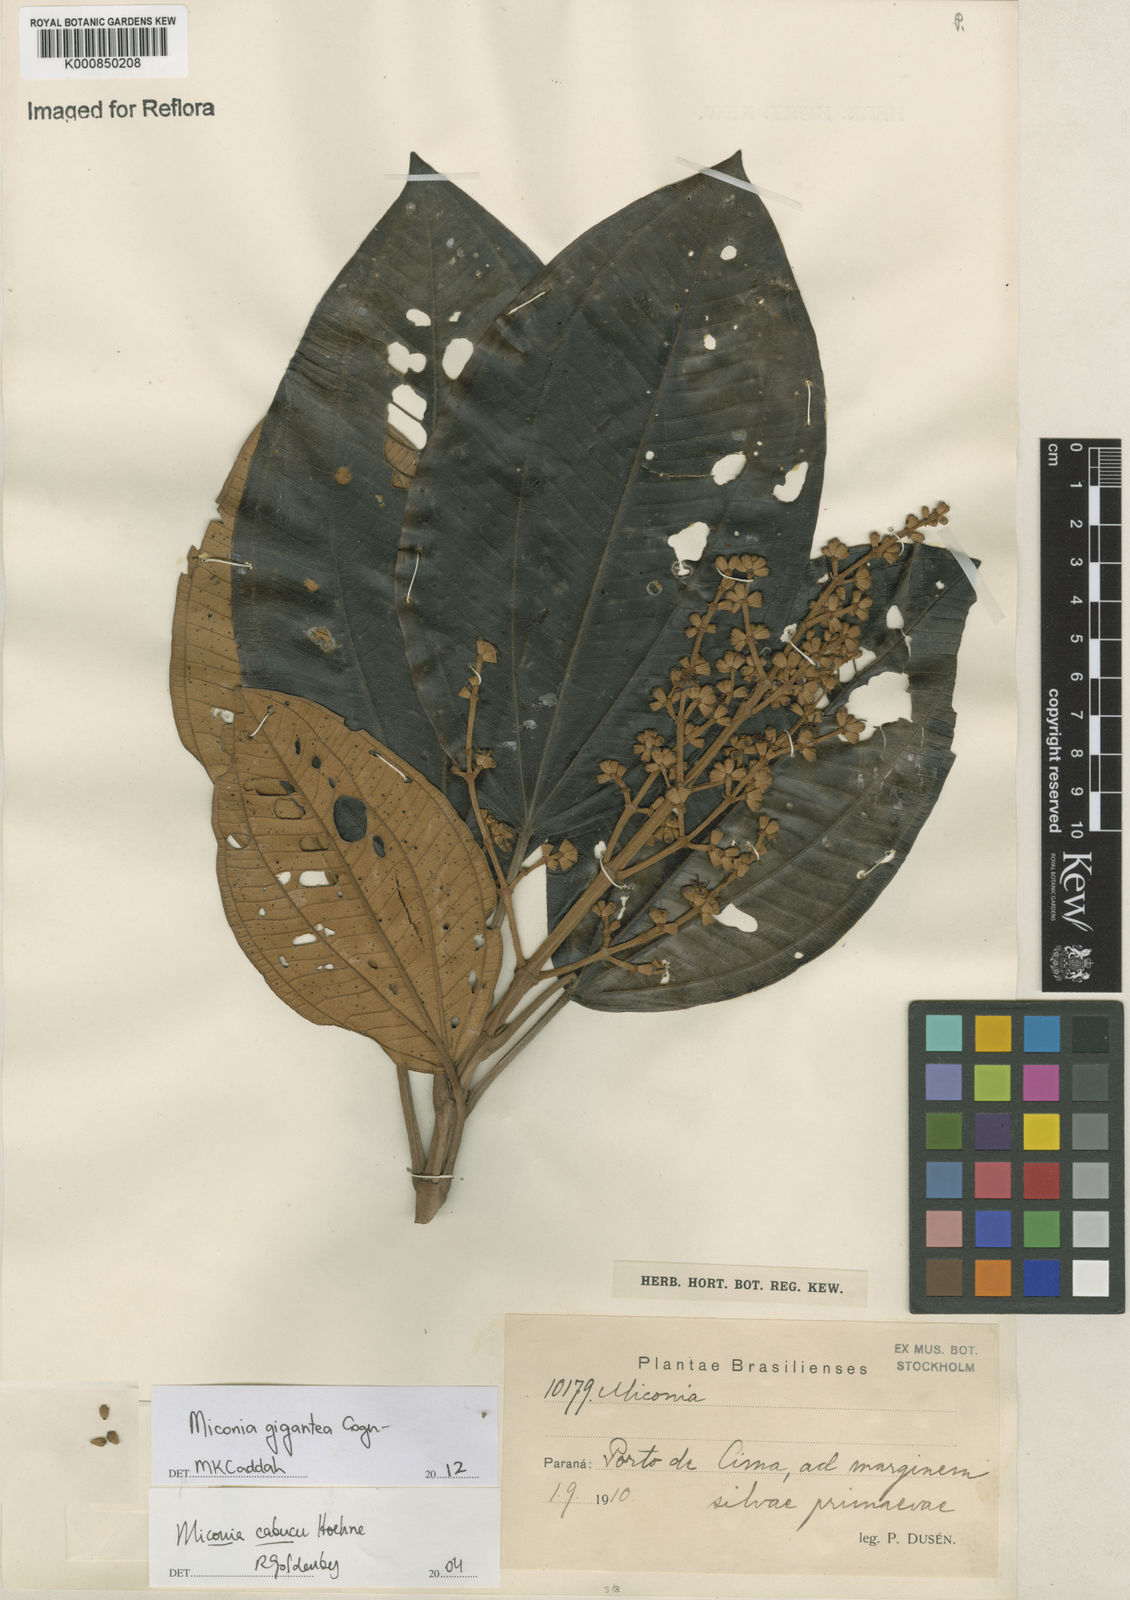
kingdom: Plantae
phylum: Tracheophyta
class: Magnoliopsida
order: Myrtales
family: Melastomataceae
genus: Miconia
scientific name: Miconia formosa
